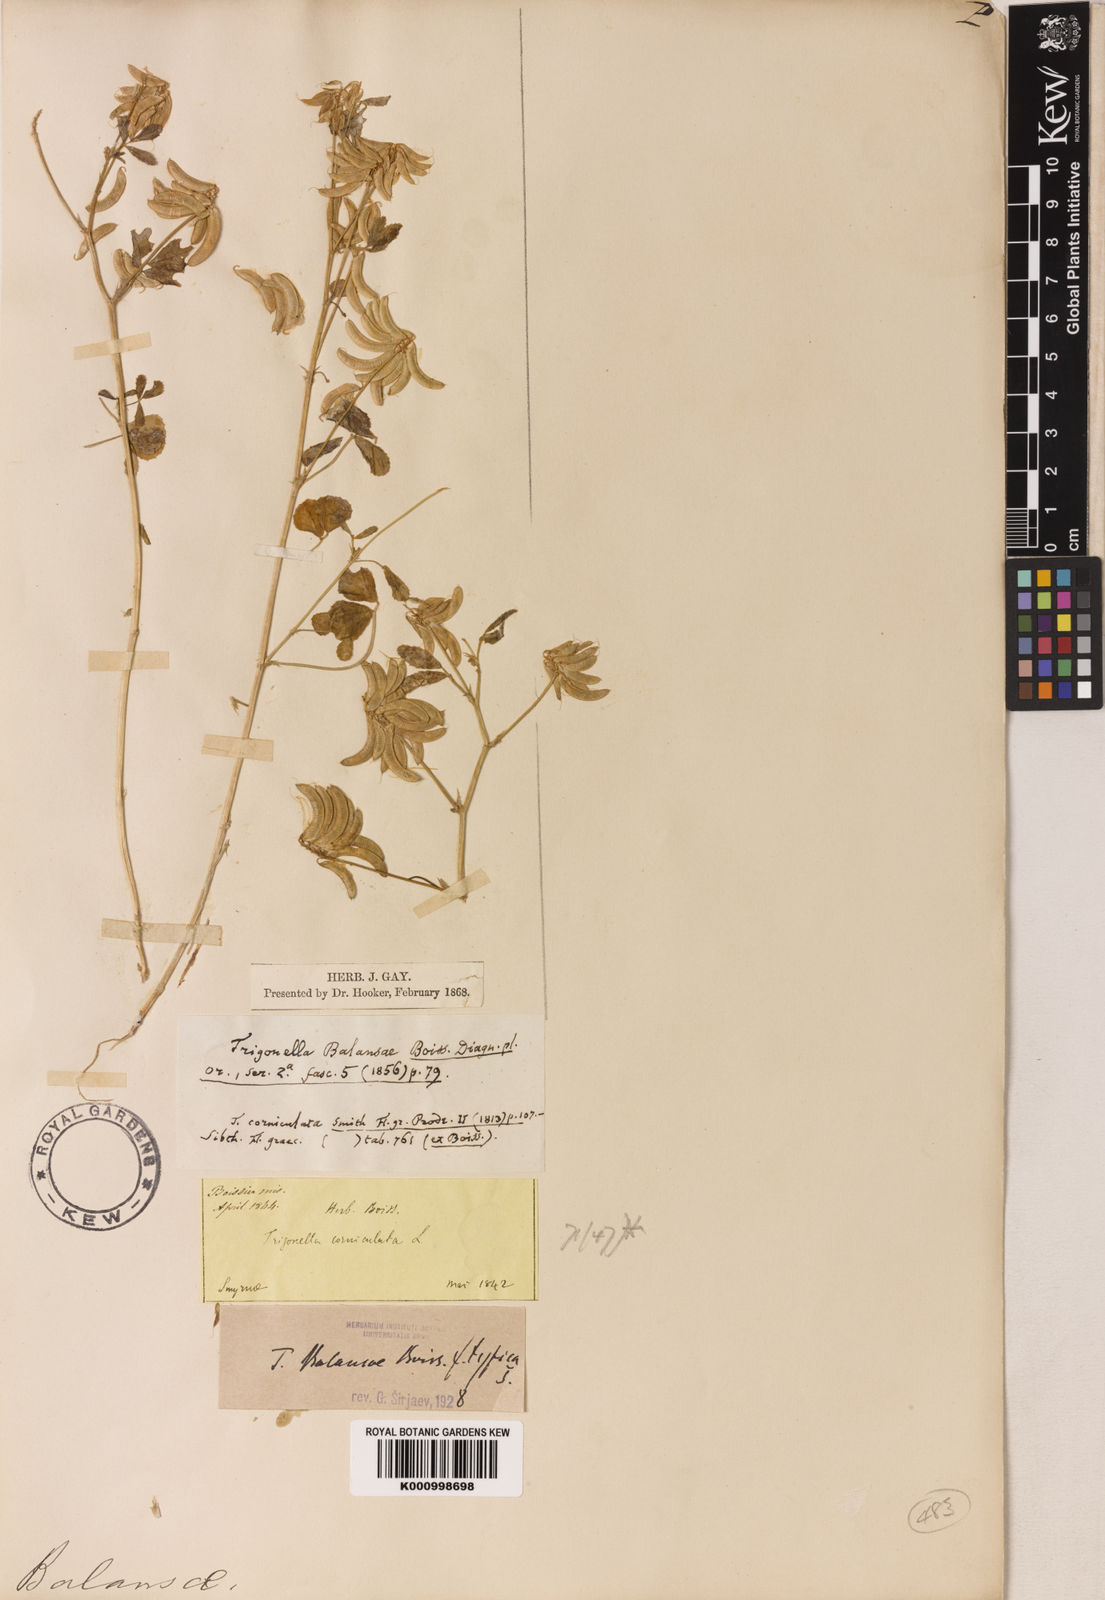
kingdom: Plantae
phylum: Tracheophyta
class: Magnoliopsida
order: Fabales
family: Fabaceae
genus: Trigonella
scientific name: Trigonella balansae
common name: Sickle-fruited fenugreek
